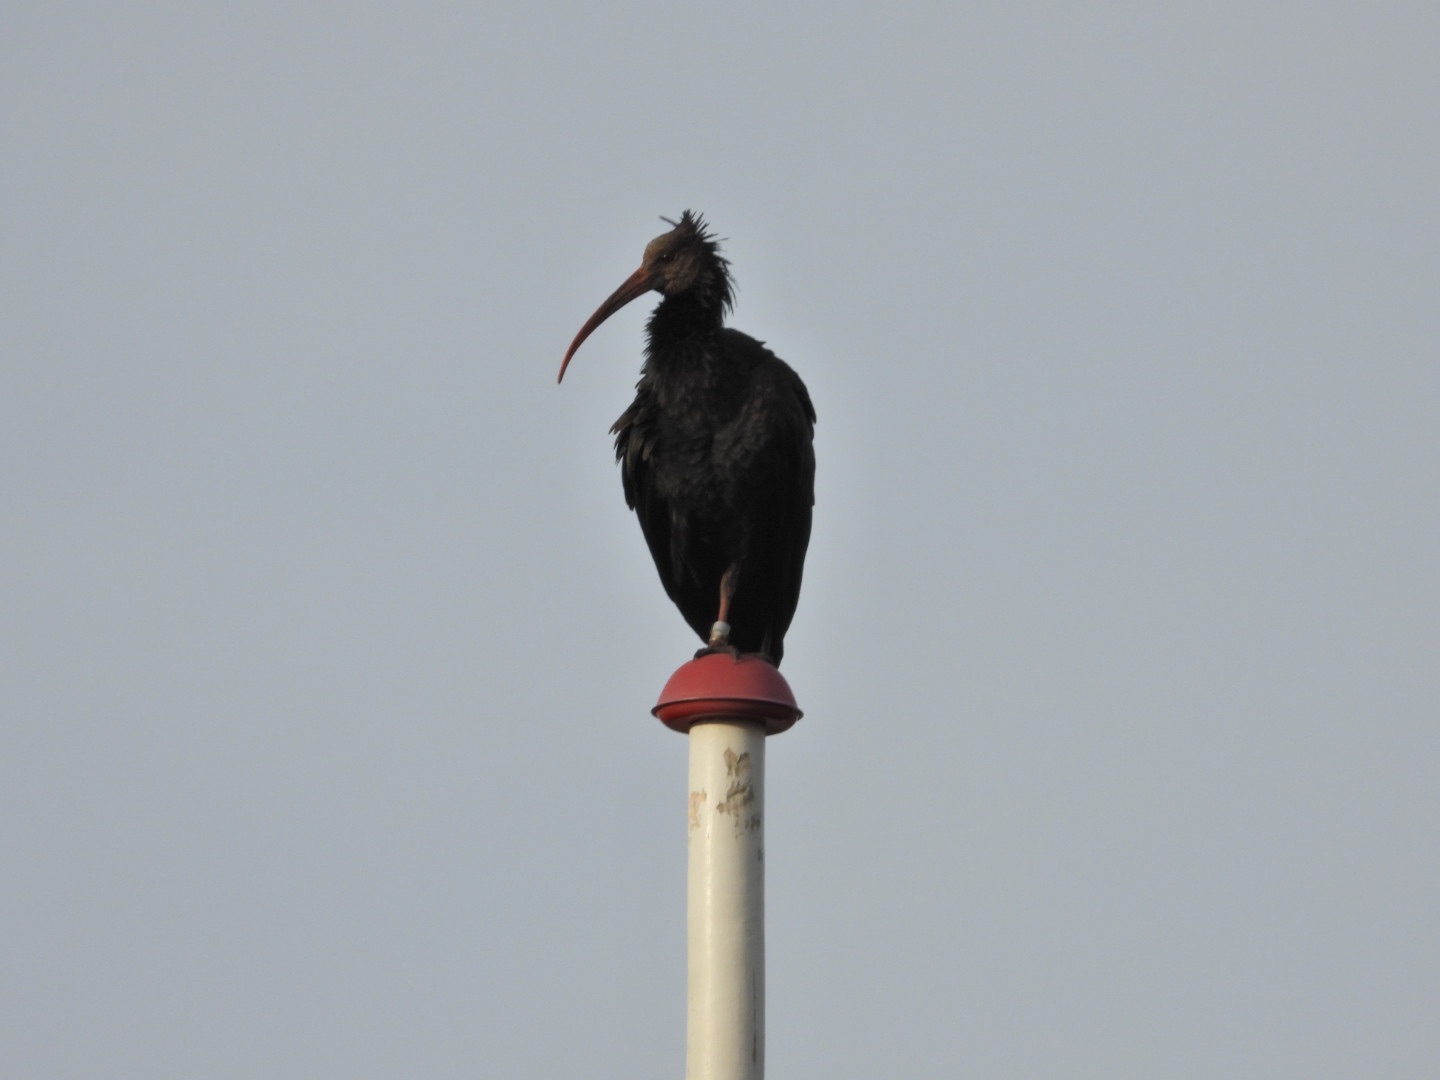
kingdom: Animalia
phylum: Chordata
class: Aves
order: Pelecaniformes
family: Threskiornithidae
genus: Geronticus
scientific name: Geronticus eremita
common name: Eremitibis
